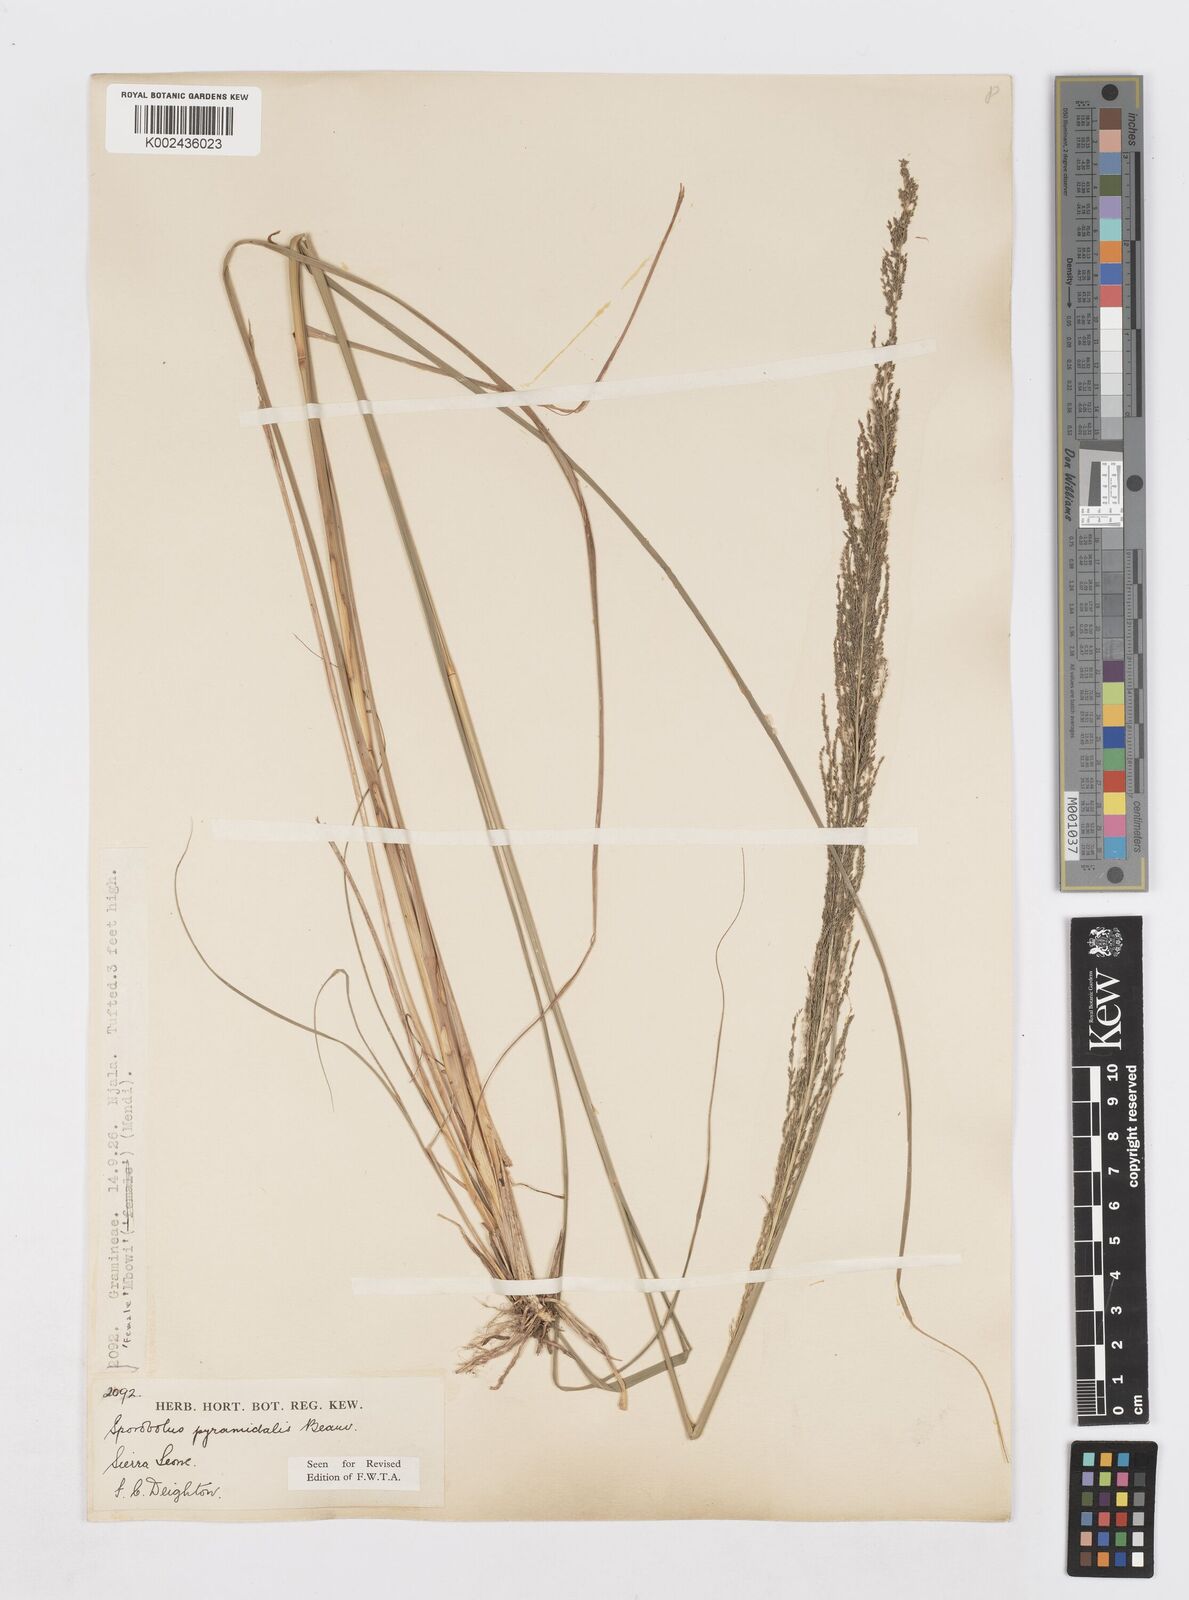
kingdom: Plantae
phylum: Tracheophyta
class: Liliopsida
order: Poales
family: Poaceae
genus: Sporobolus
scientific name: Sporobolus pyramidalis
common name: West indian dropseed
